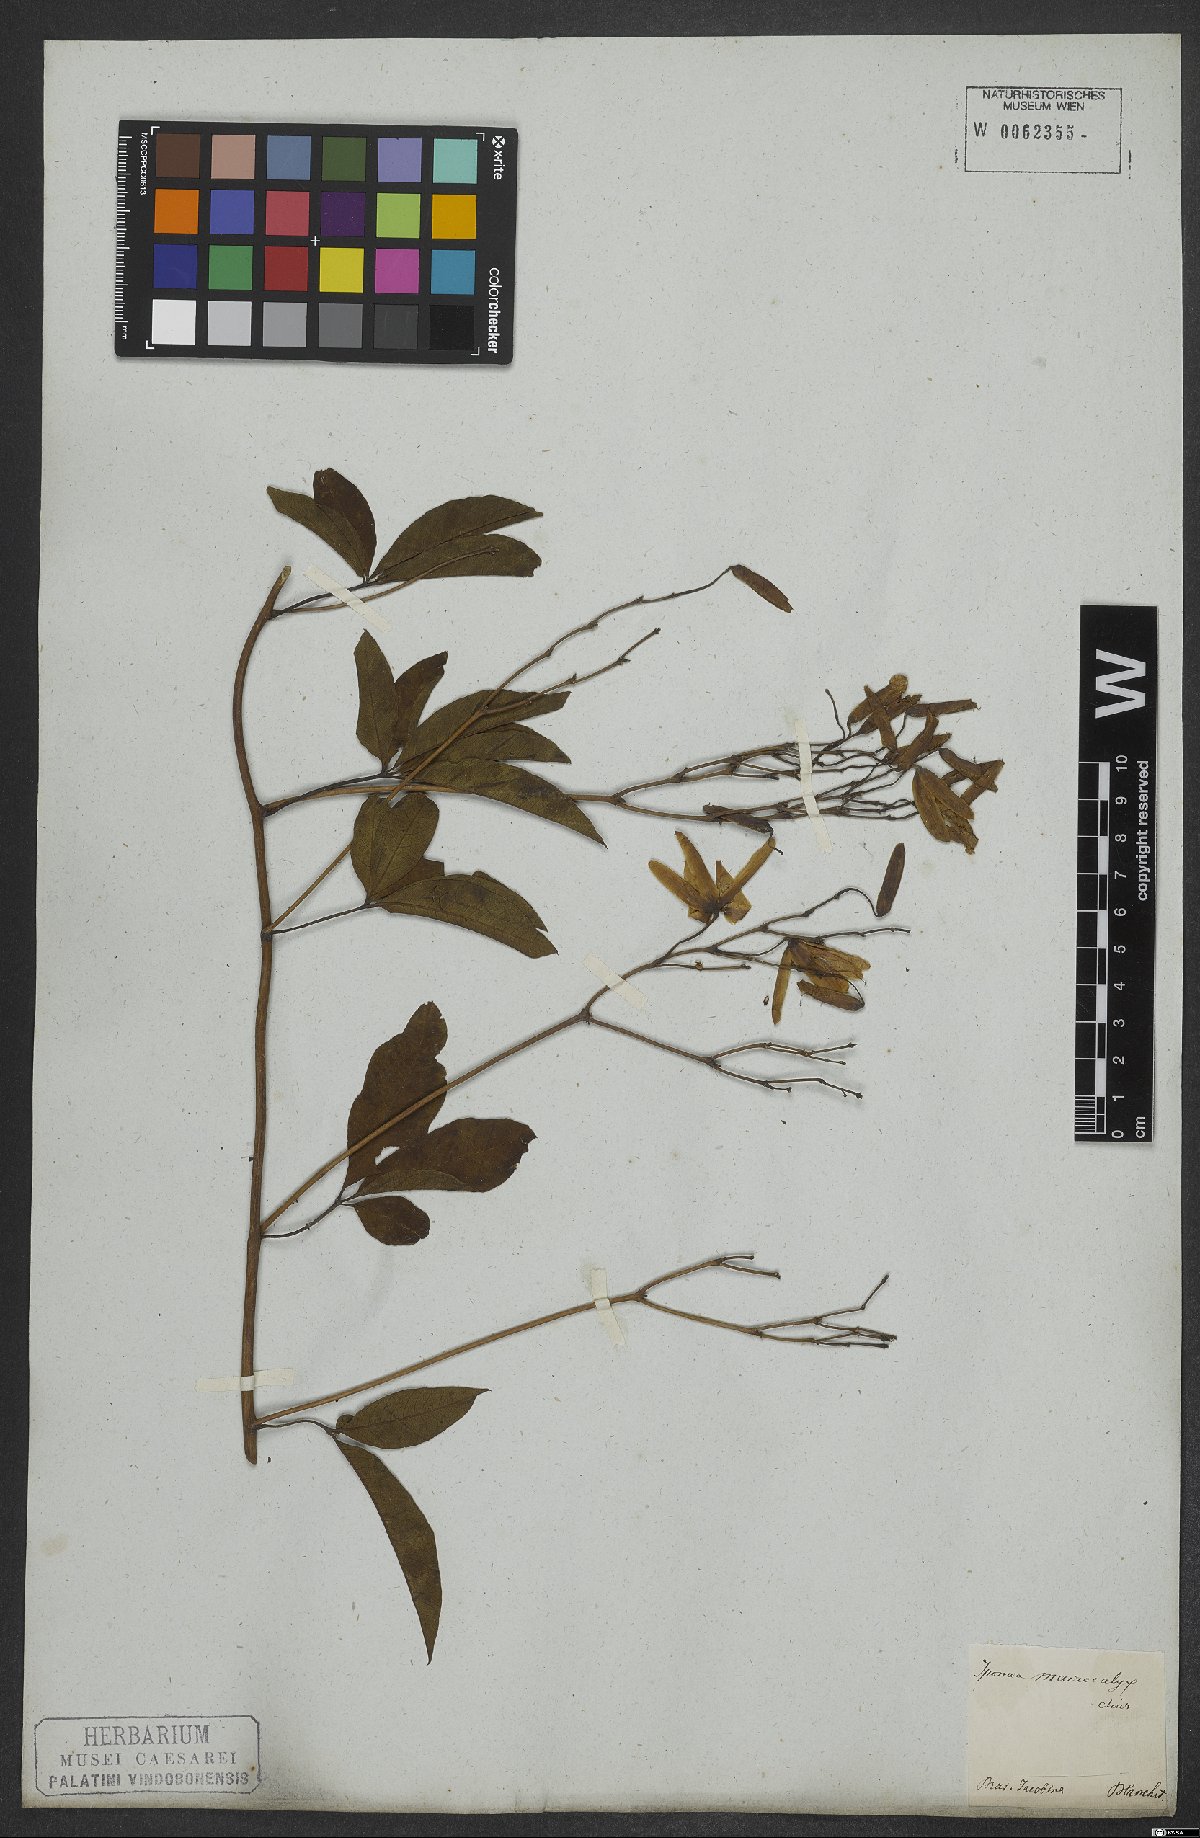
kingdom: Plantae
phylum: Tracheophyta
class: Magnoliopsida
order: Solanales
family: Convolvulaceae
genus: Distimake
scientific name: Distimake macrocalyx
